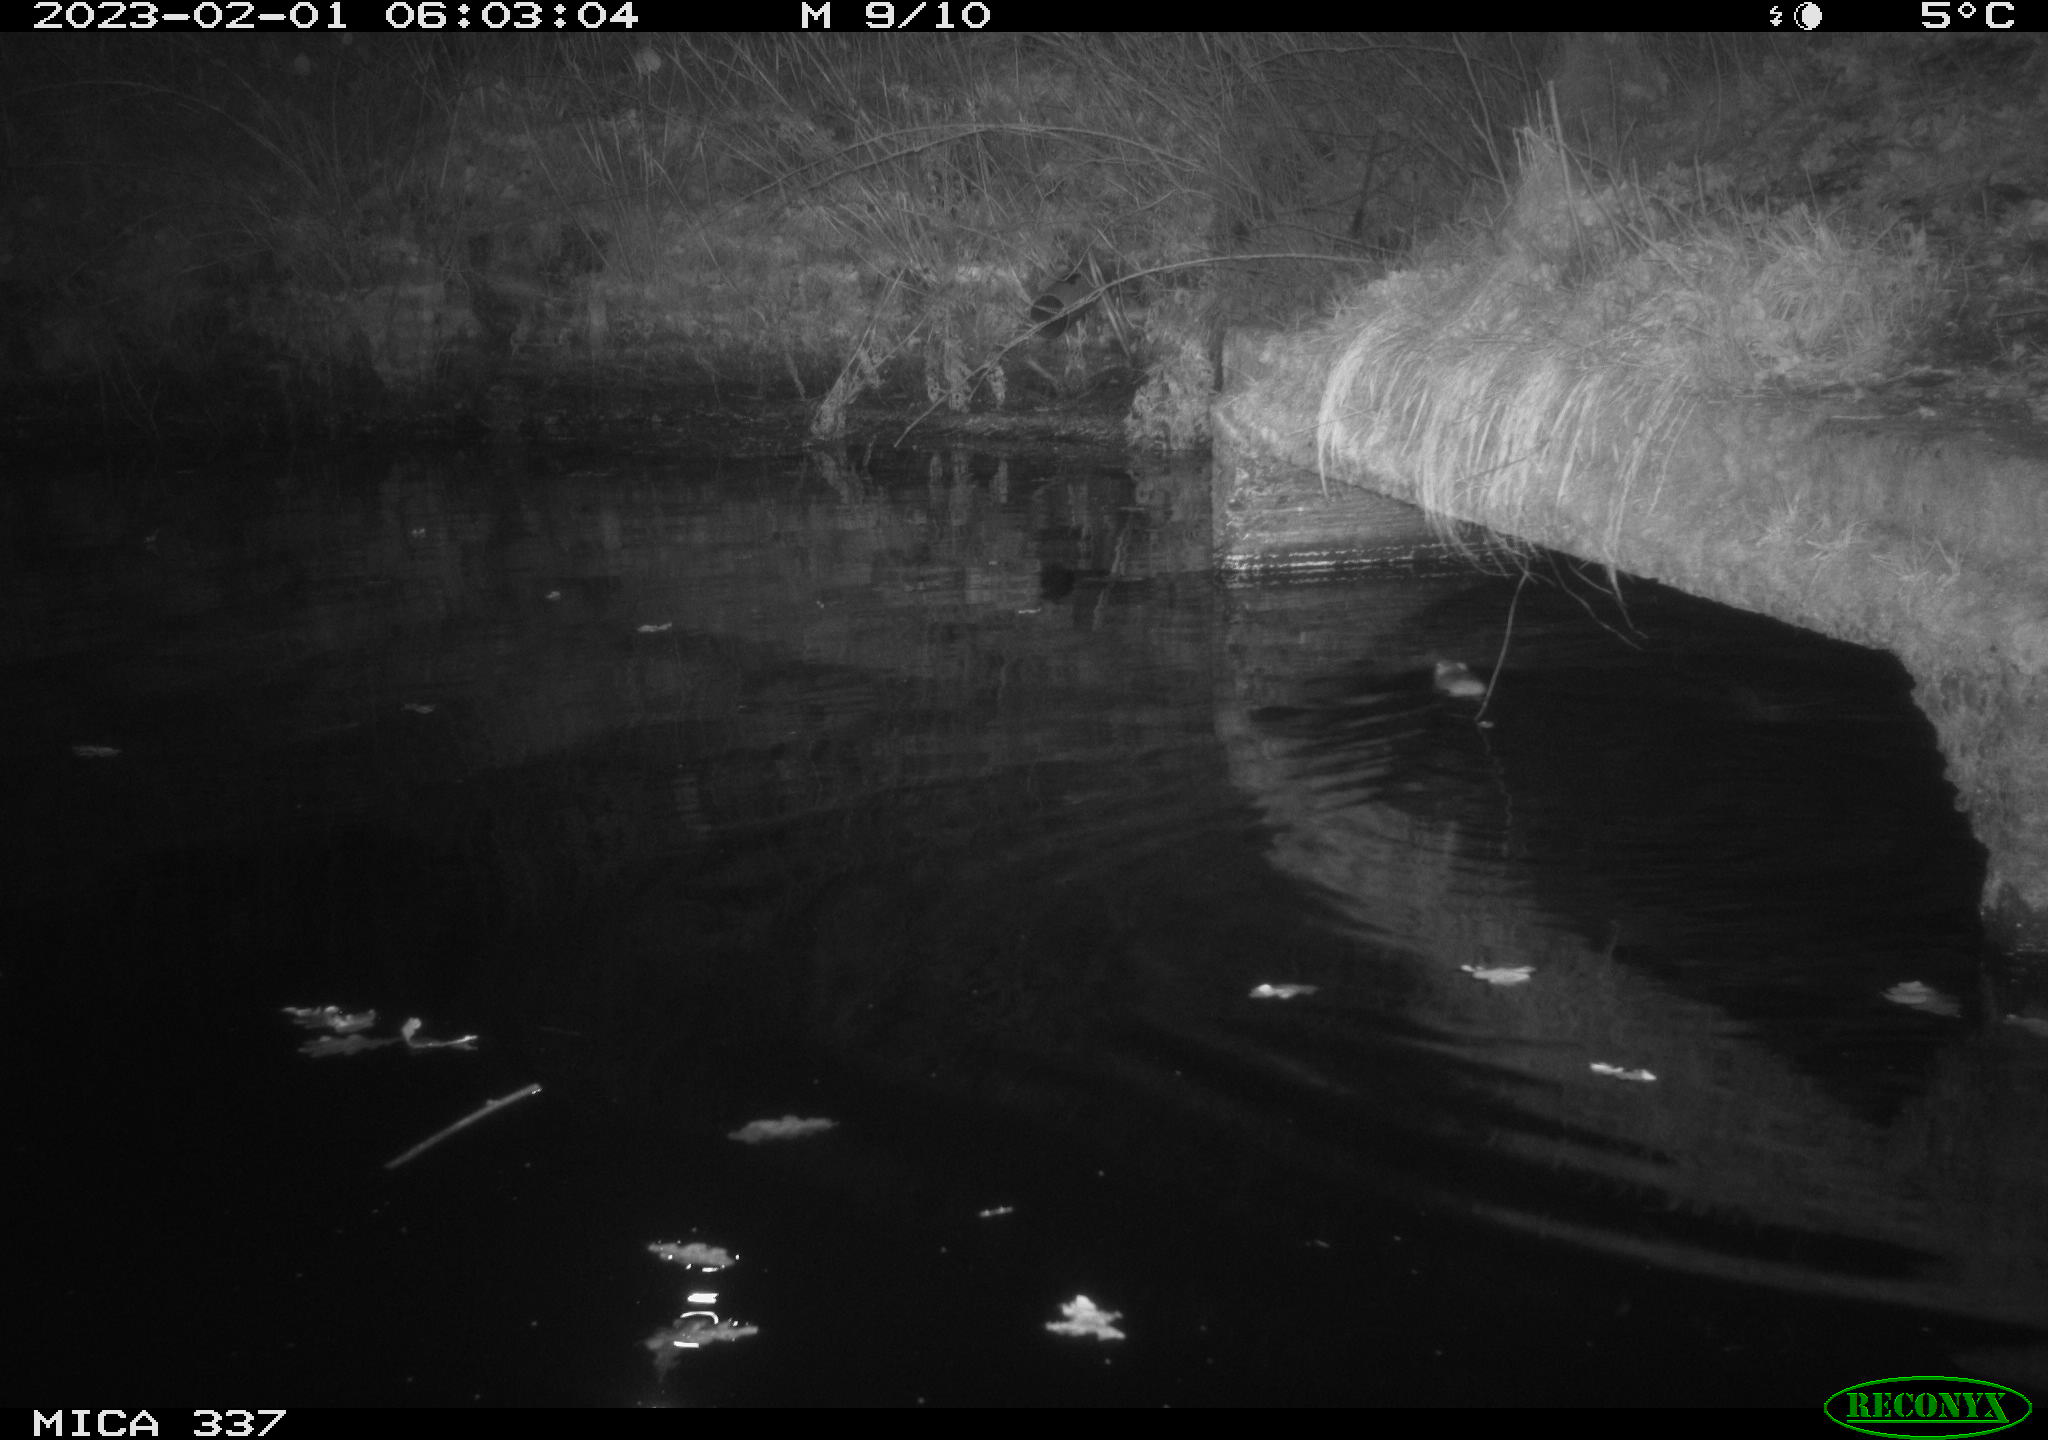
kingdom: Animalia
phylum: Chordata
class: Mammalia
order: Rodentia
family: Muridae
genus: Rattus
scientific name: Rattus norvegicus
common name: Brown rat
